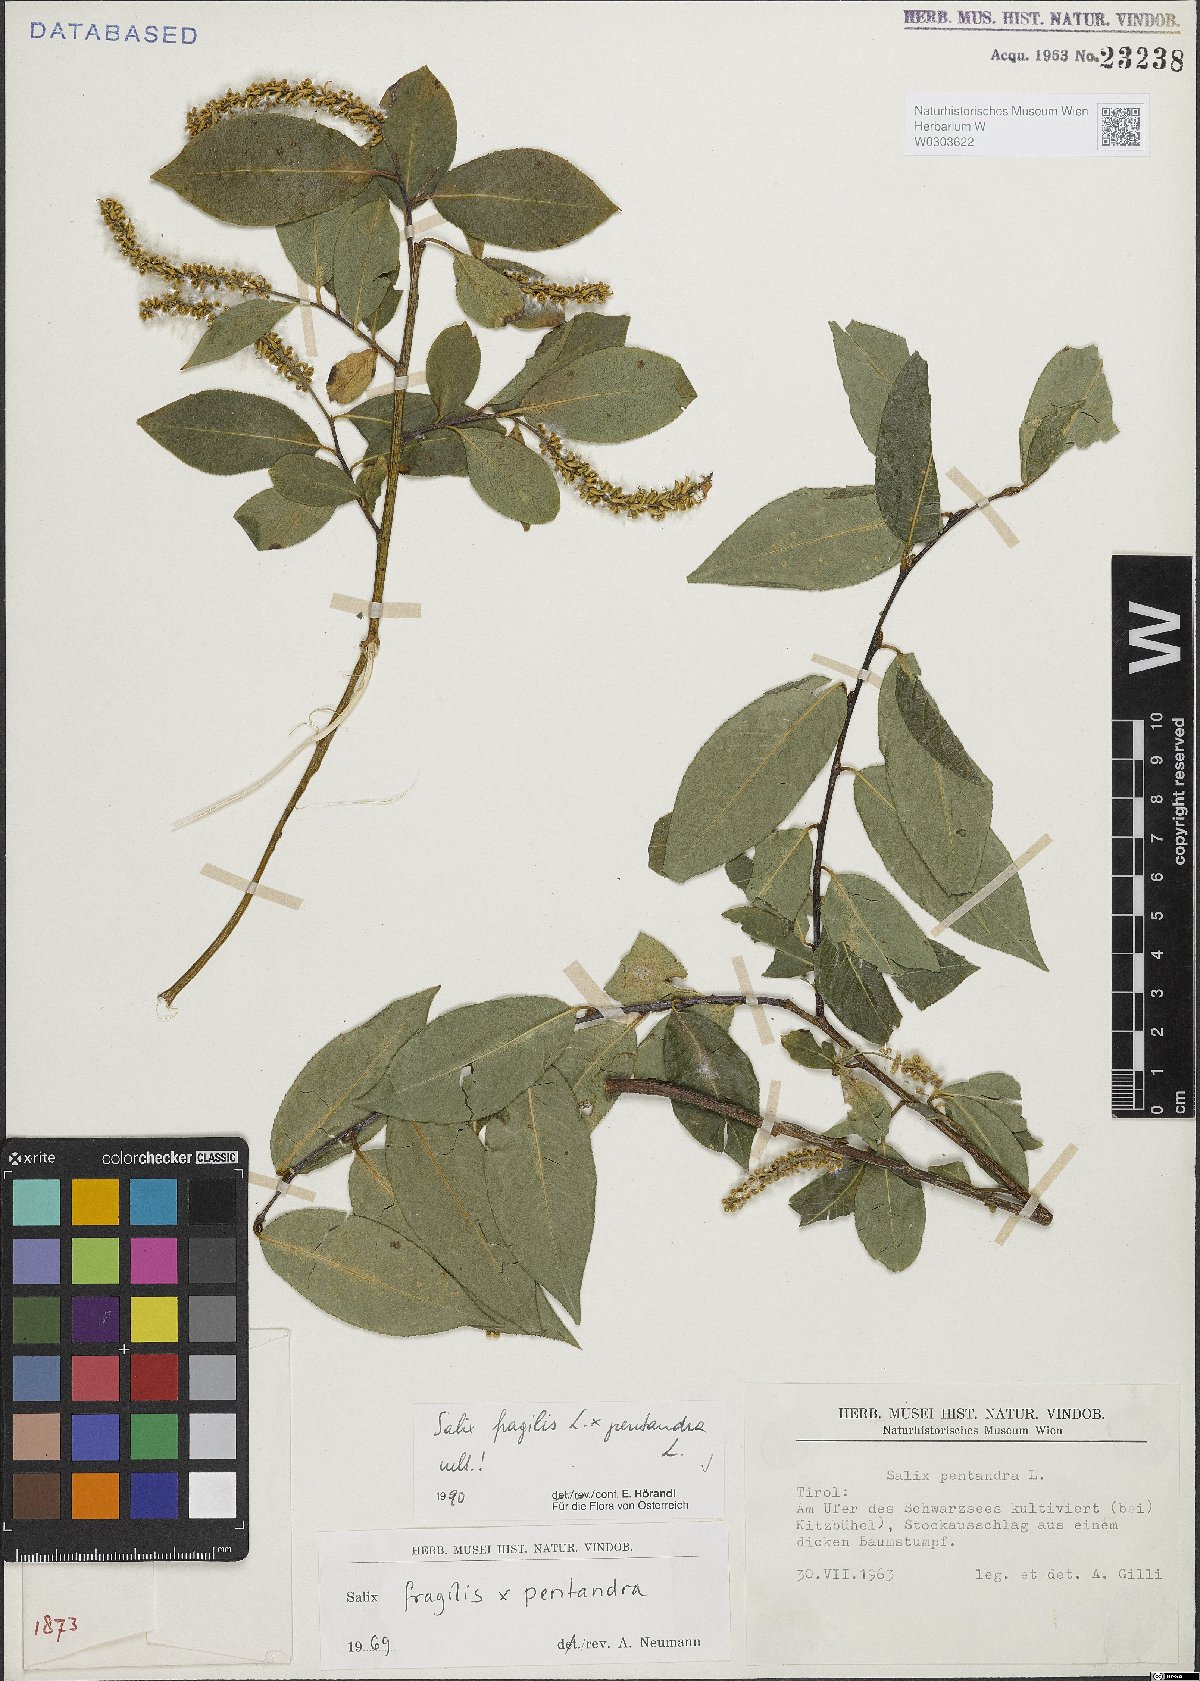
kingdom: Plantae
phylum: Tracheophyta
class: Magnoliopsida
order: Malpighiales
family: Salicaceae
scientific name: Salicaceae
